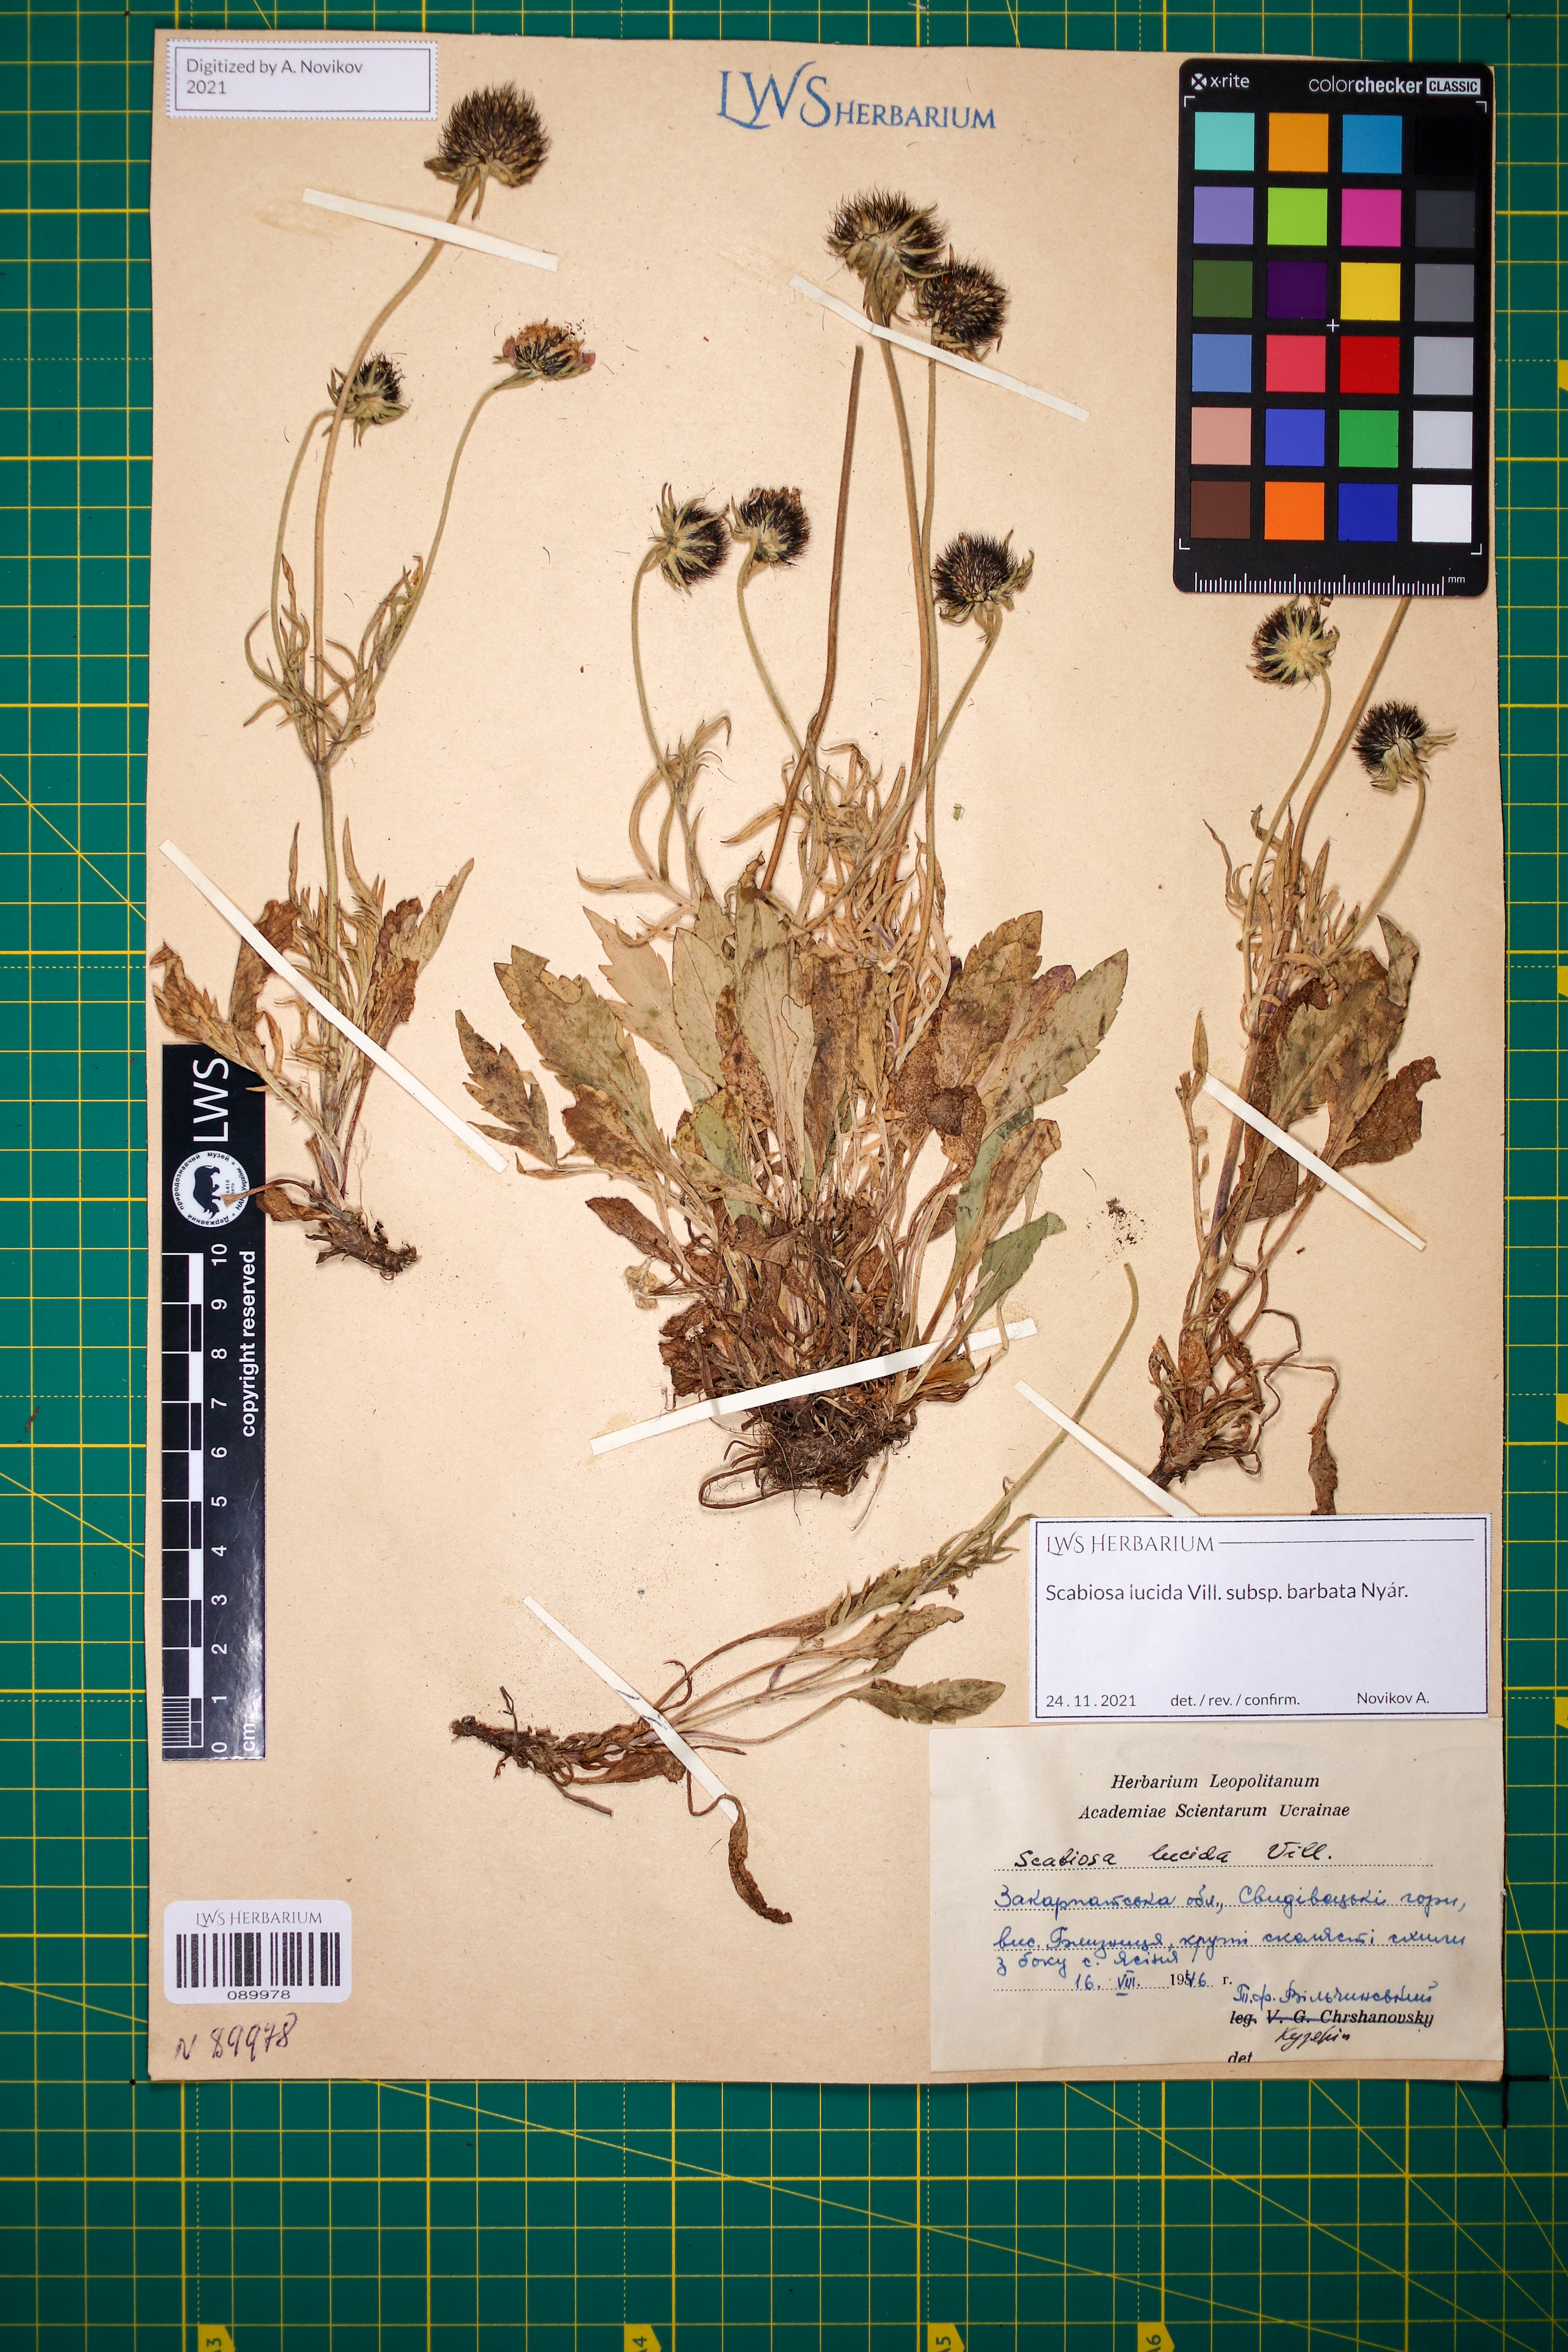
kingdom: Plantae
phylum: Tracheophyta
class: Magnoliopsida
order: Dipsacales
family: Caprifoliaceae
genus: Scabiosa
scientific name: Scabiosa lucida
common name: Shining scabious
